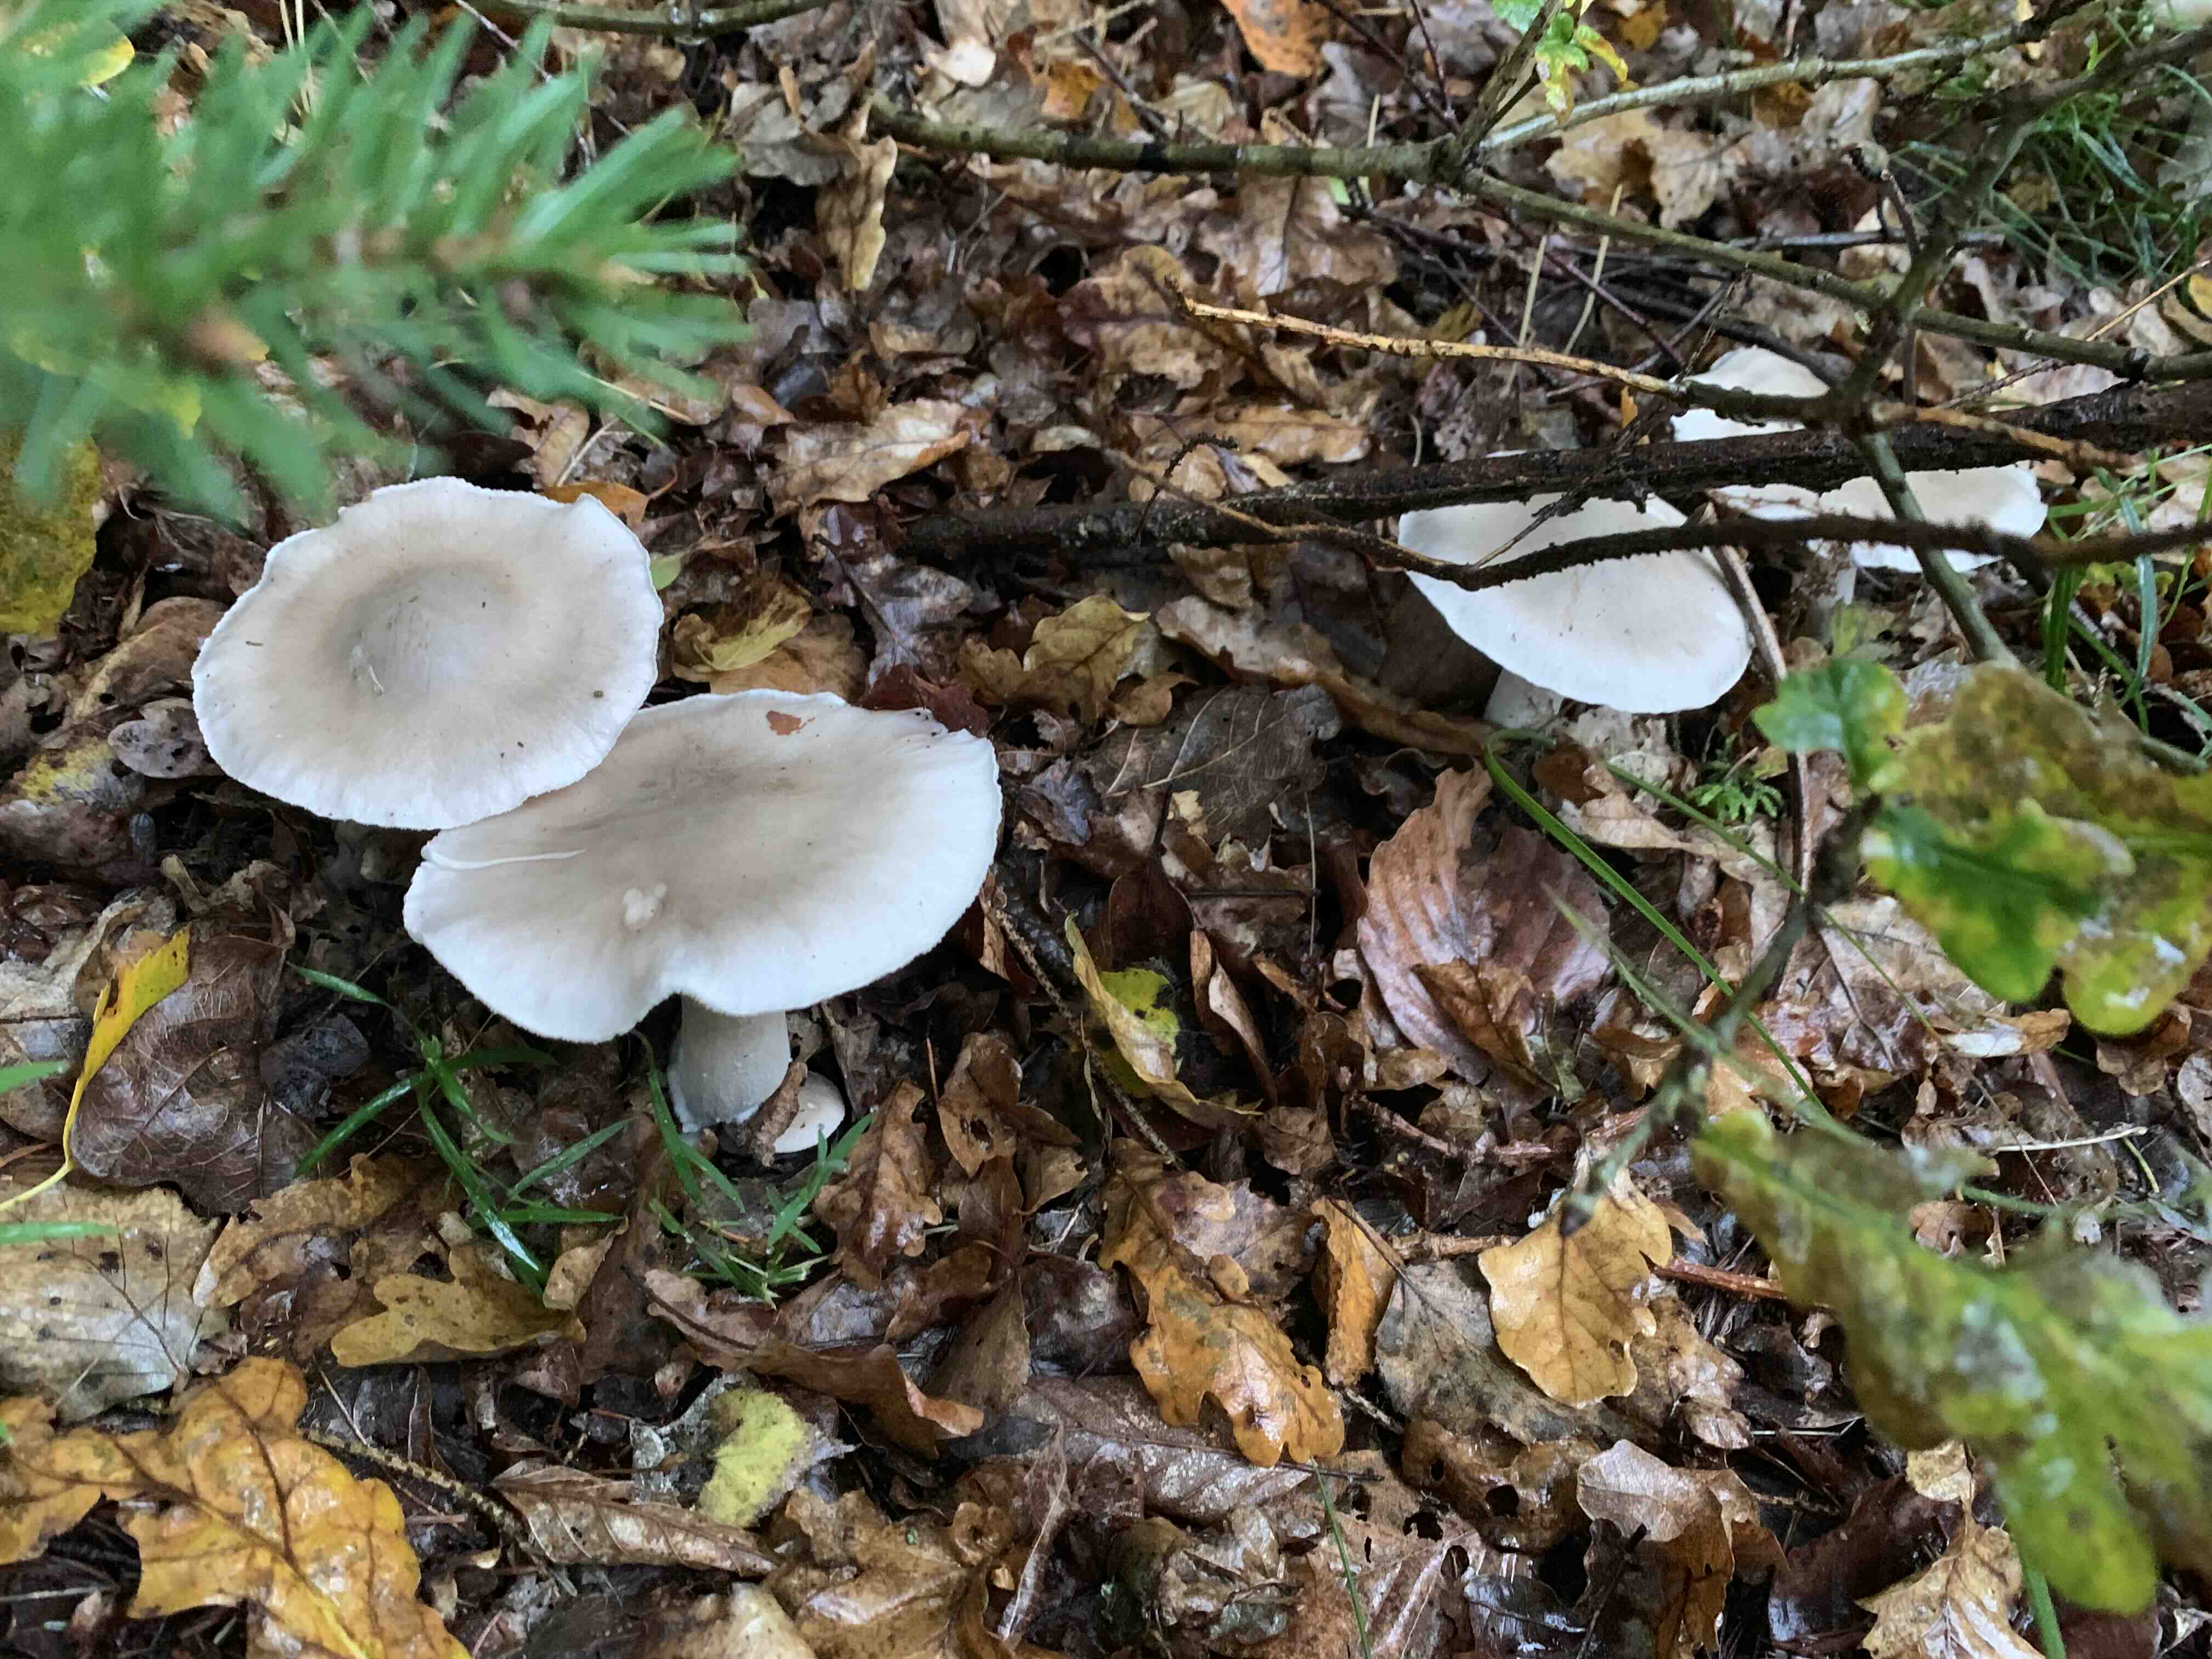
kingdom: Fungi
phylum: Basidiomycota
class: Agaricomycetes
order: Agaricales
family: Tricholomataceae
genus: Clitocybe
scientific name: Clitocybe nebularis
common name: tåge-tragthat
